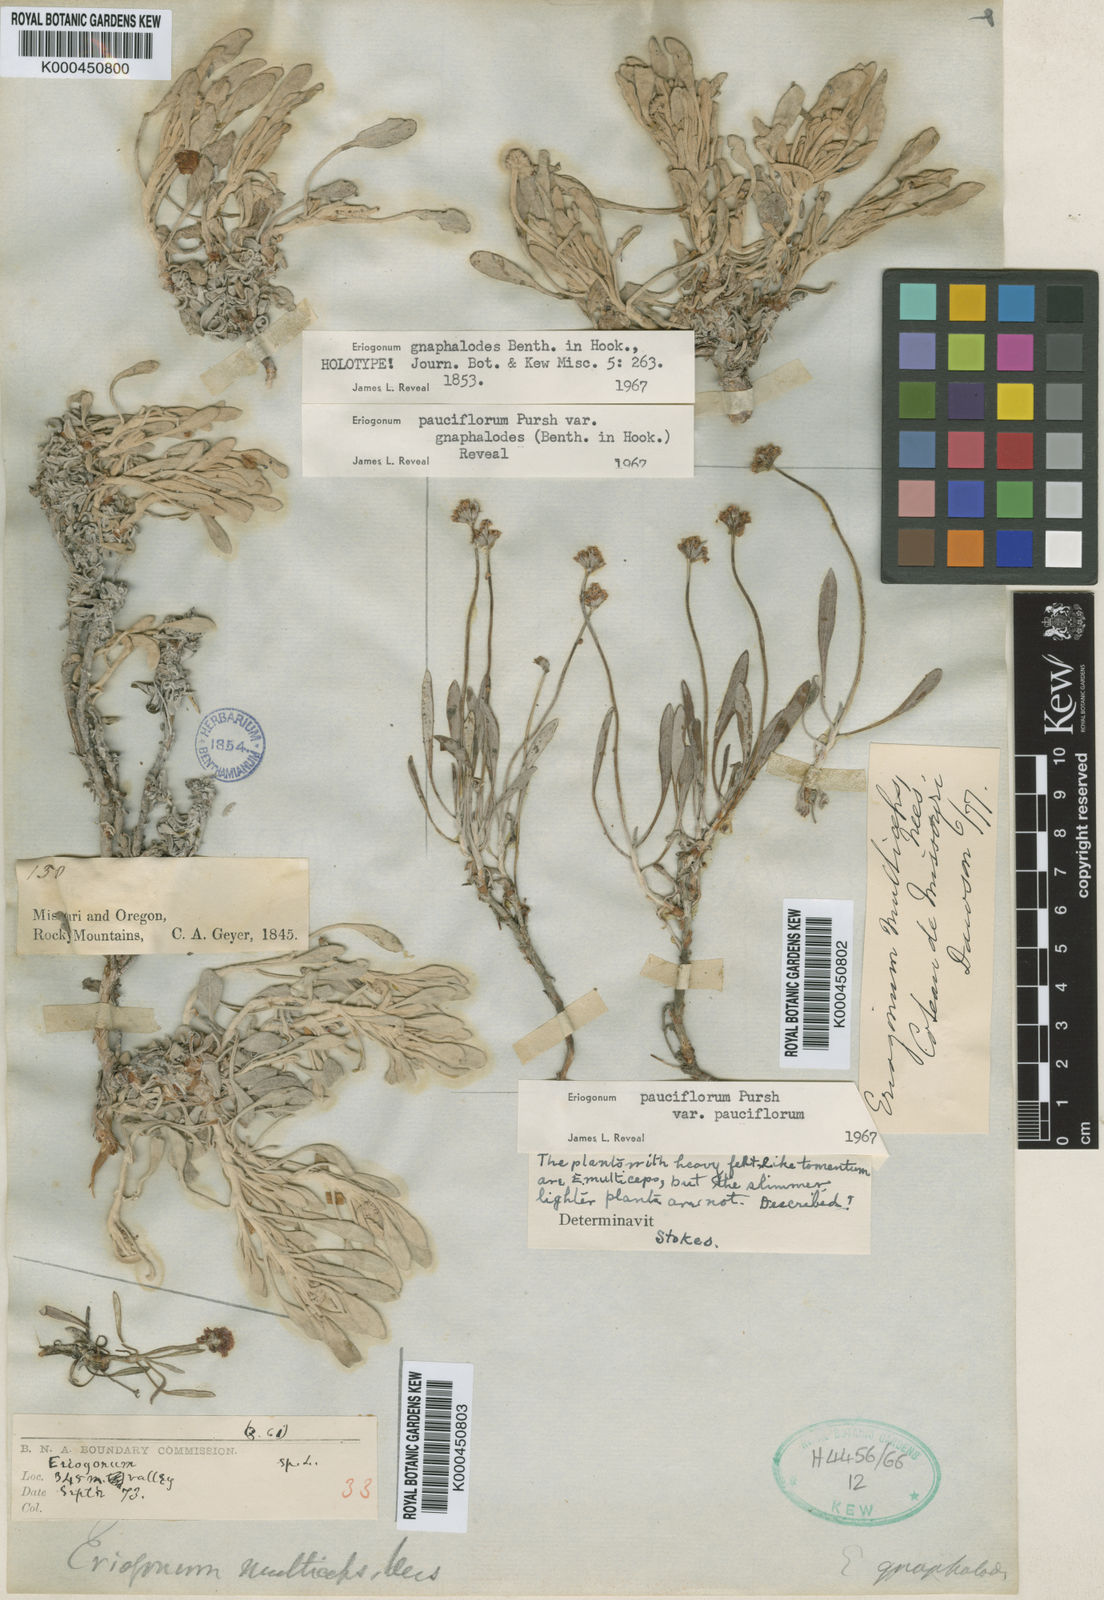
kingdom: Plantae
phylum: Tracheophyta
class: Magnoliopsida
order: Caryophyllales
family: Polygonaceae
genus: Eriogonum
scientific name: Eriogonum pauciflorum
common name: Few-flower wild buckwheat
